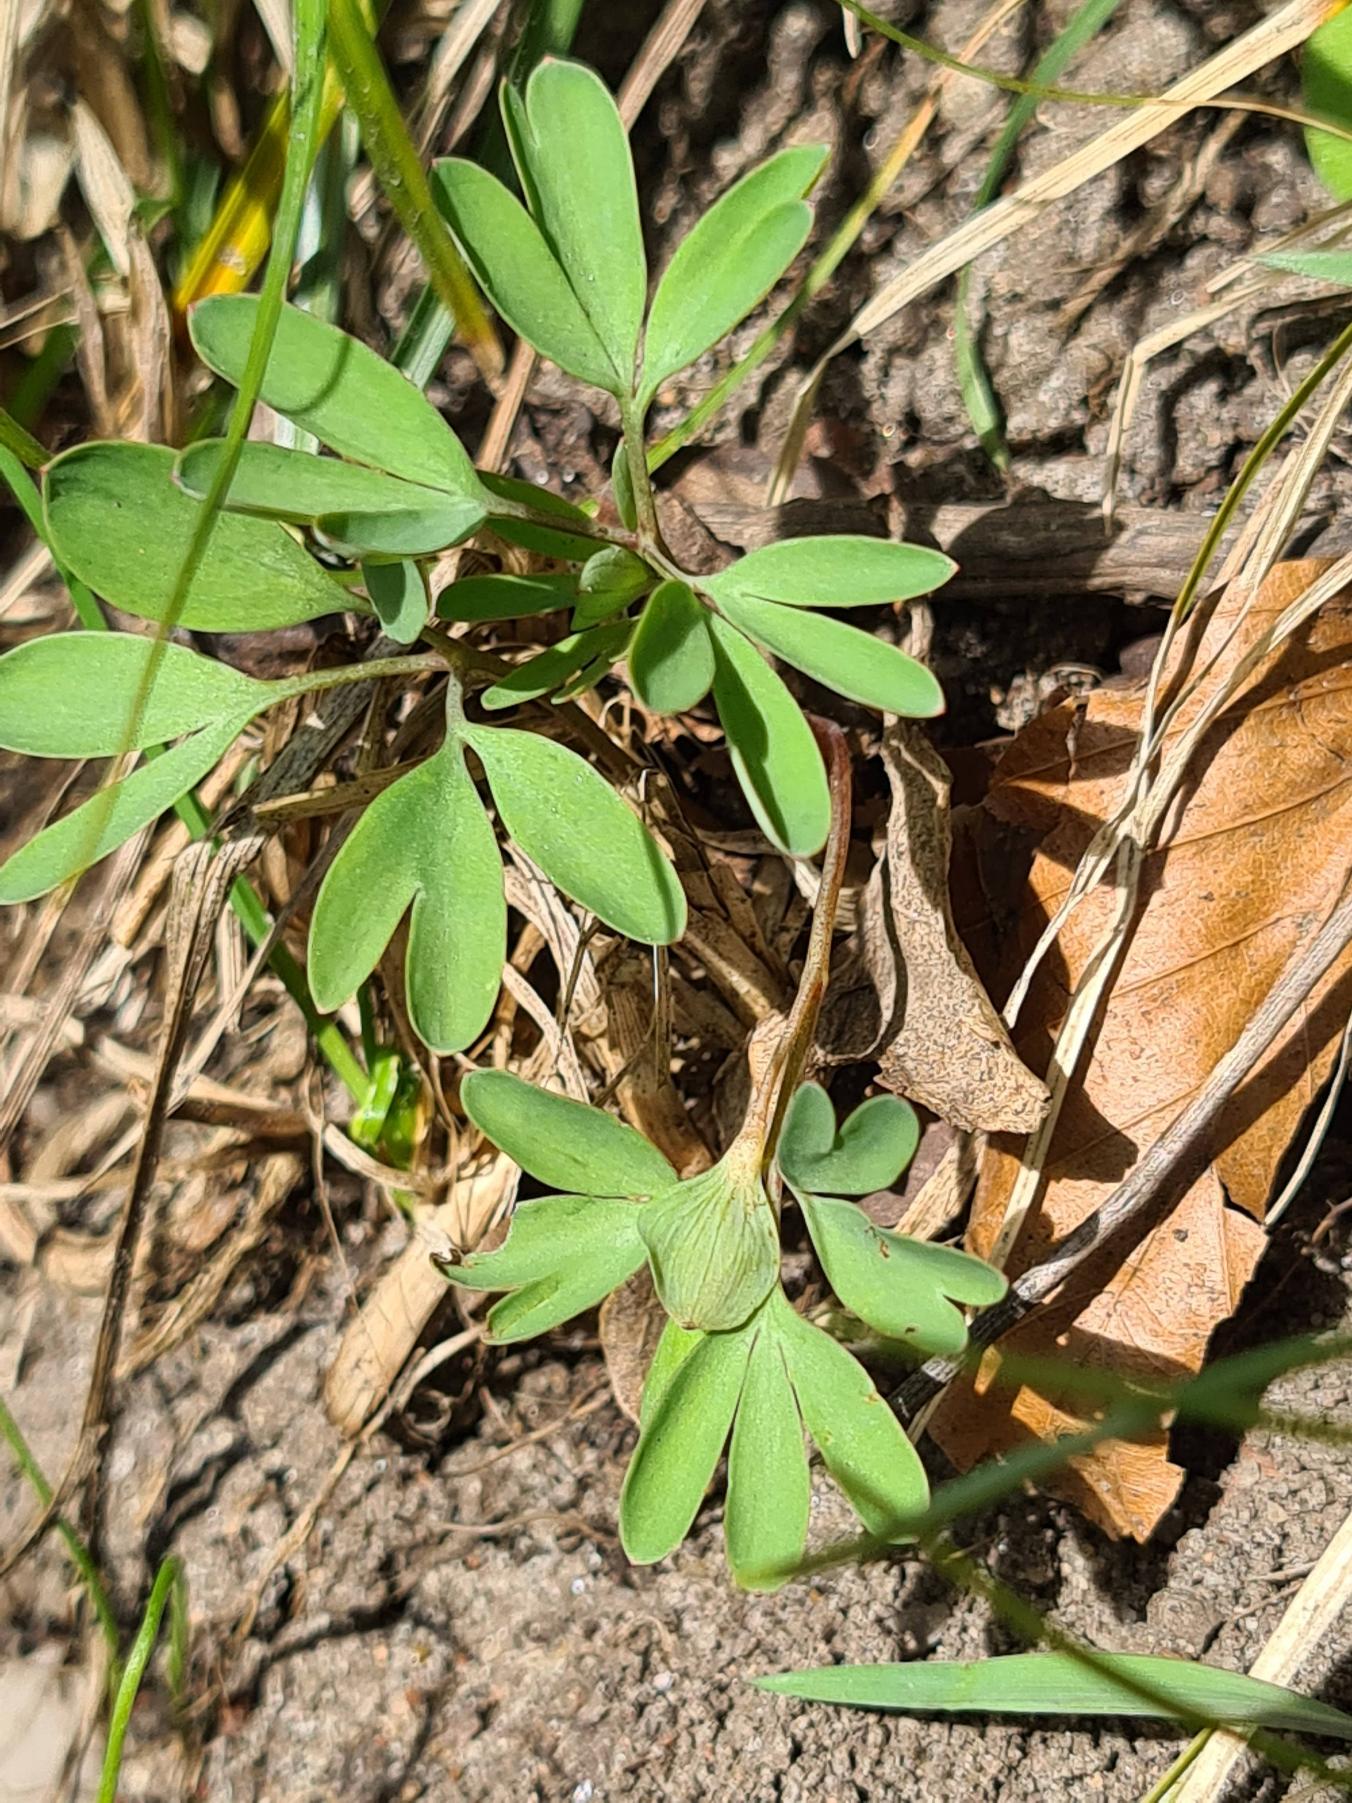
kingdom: Plantae
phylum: Tracheophyta
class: Magnoliopsida
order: Ranunculales
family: Papaveraceae
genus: Corydalis
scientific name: Corydalis intermedia
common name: Liden lærkespore
